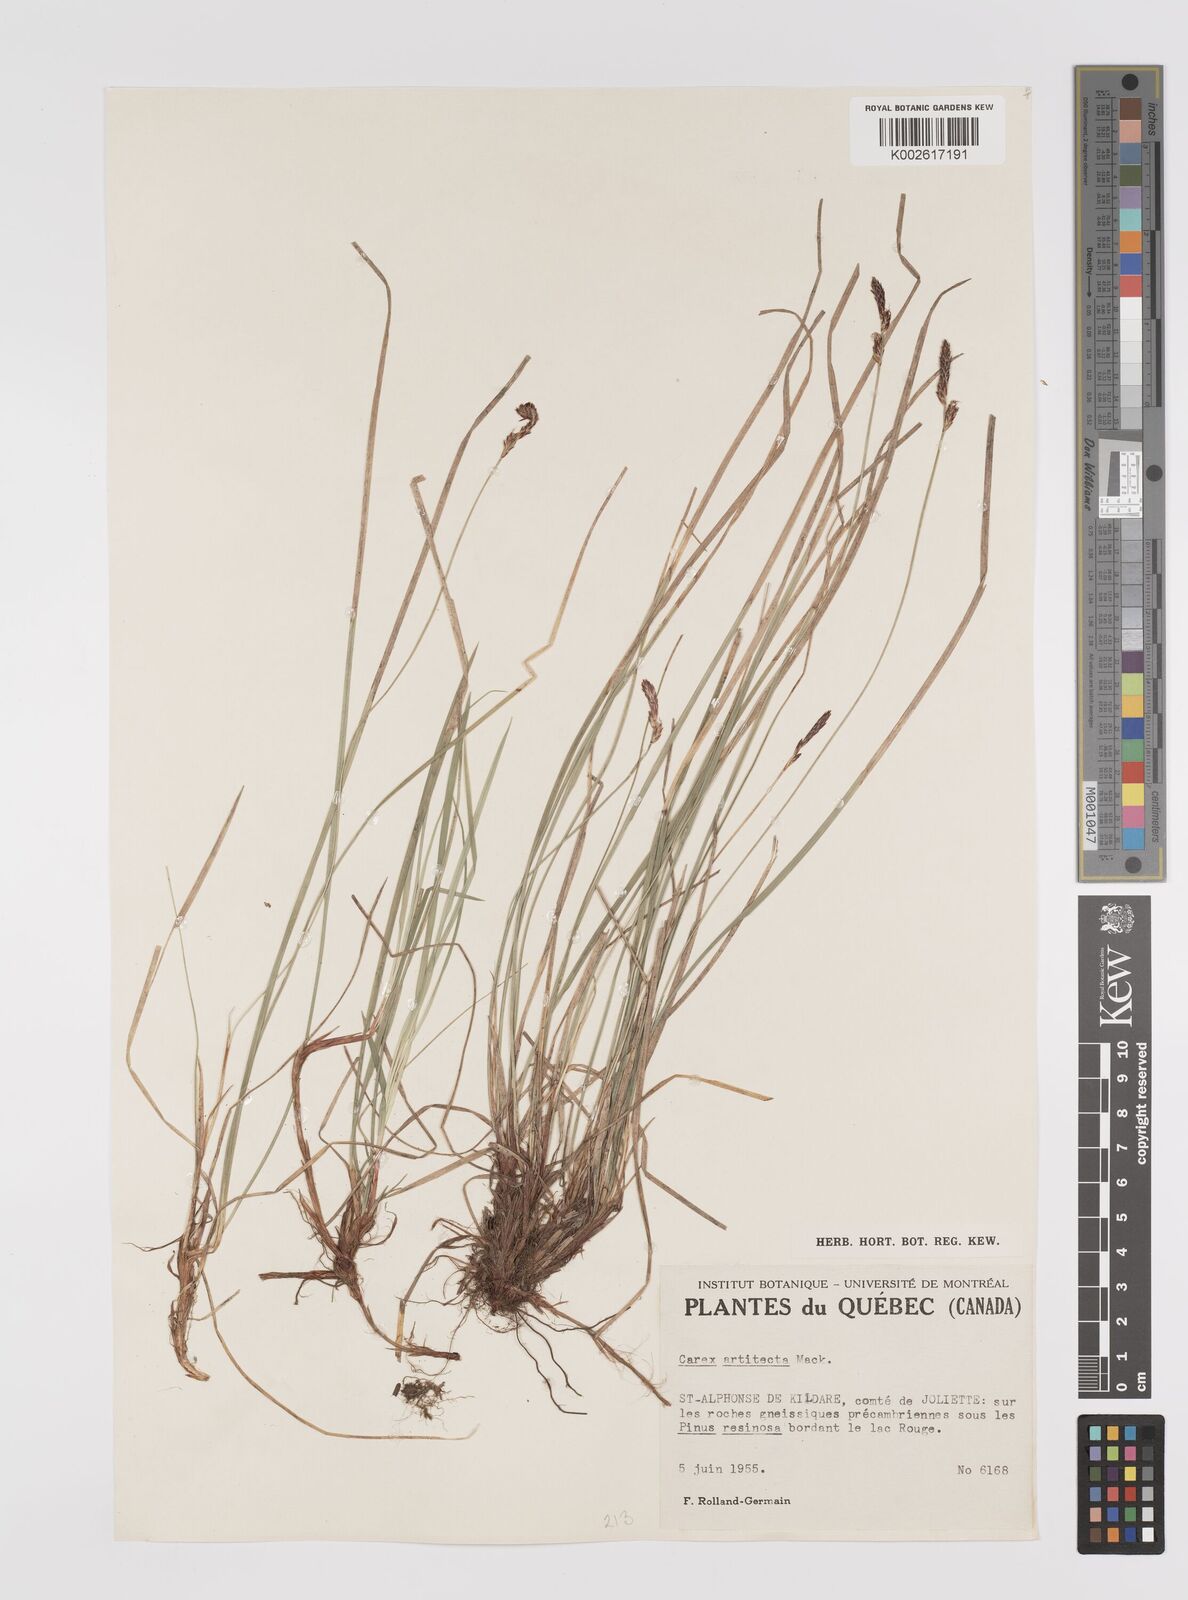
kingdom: Plantae
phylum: Tracheophyta
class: Liliopsida
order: Poales
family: Cyperaceae
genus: Carex
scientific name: Carex albicans
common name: Bellow-beaked sedge
